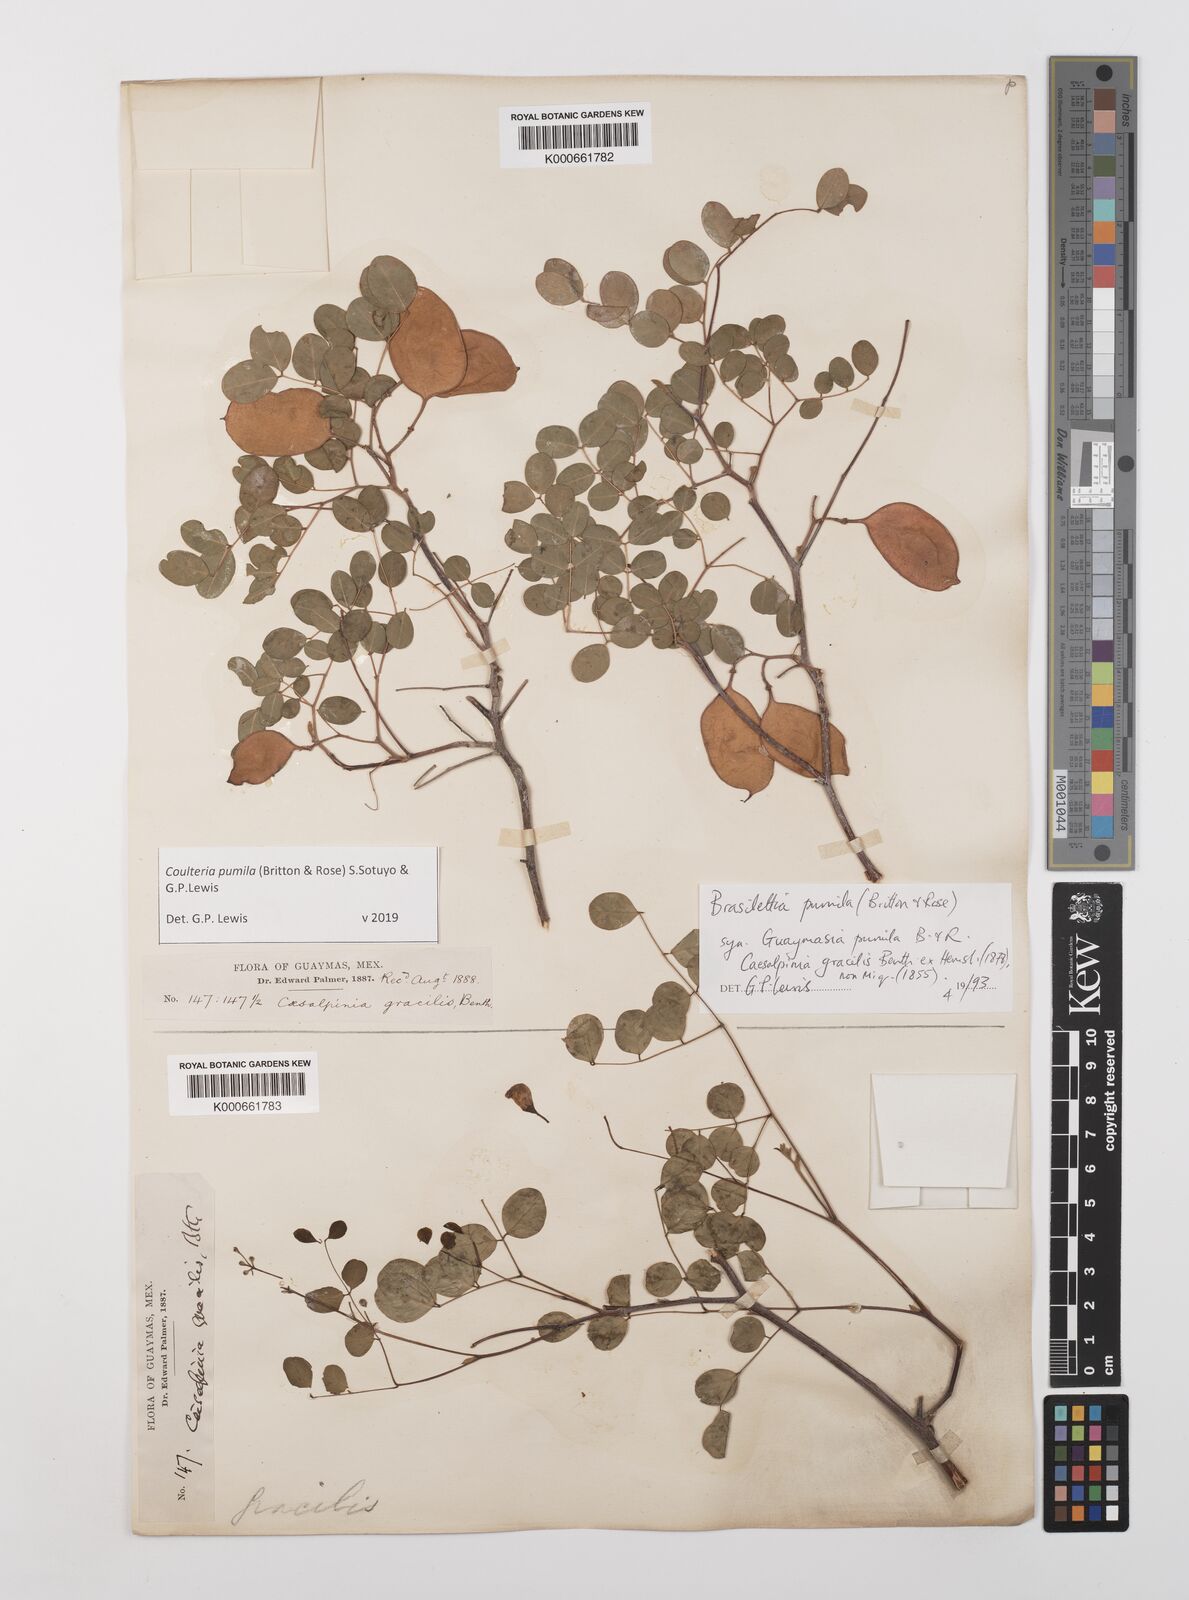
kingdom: Plantae
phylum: Tracheophyta
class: Magnoliopsida
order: Fabales
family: Fabaceae
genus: Coulteria
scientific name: Coulteria
